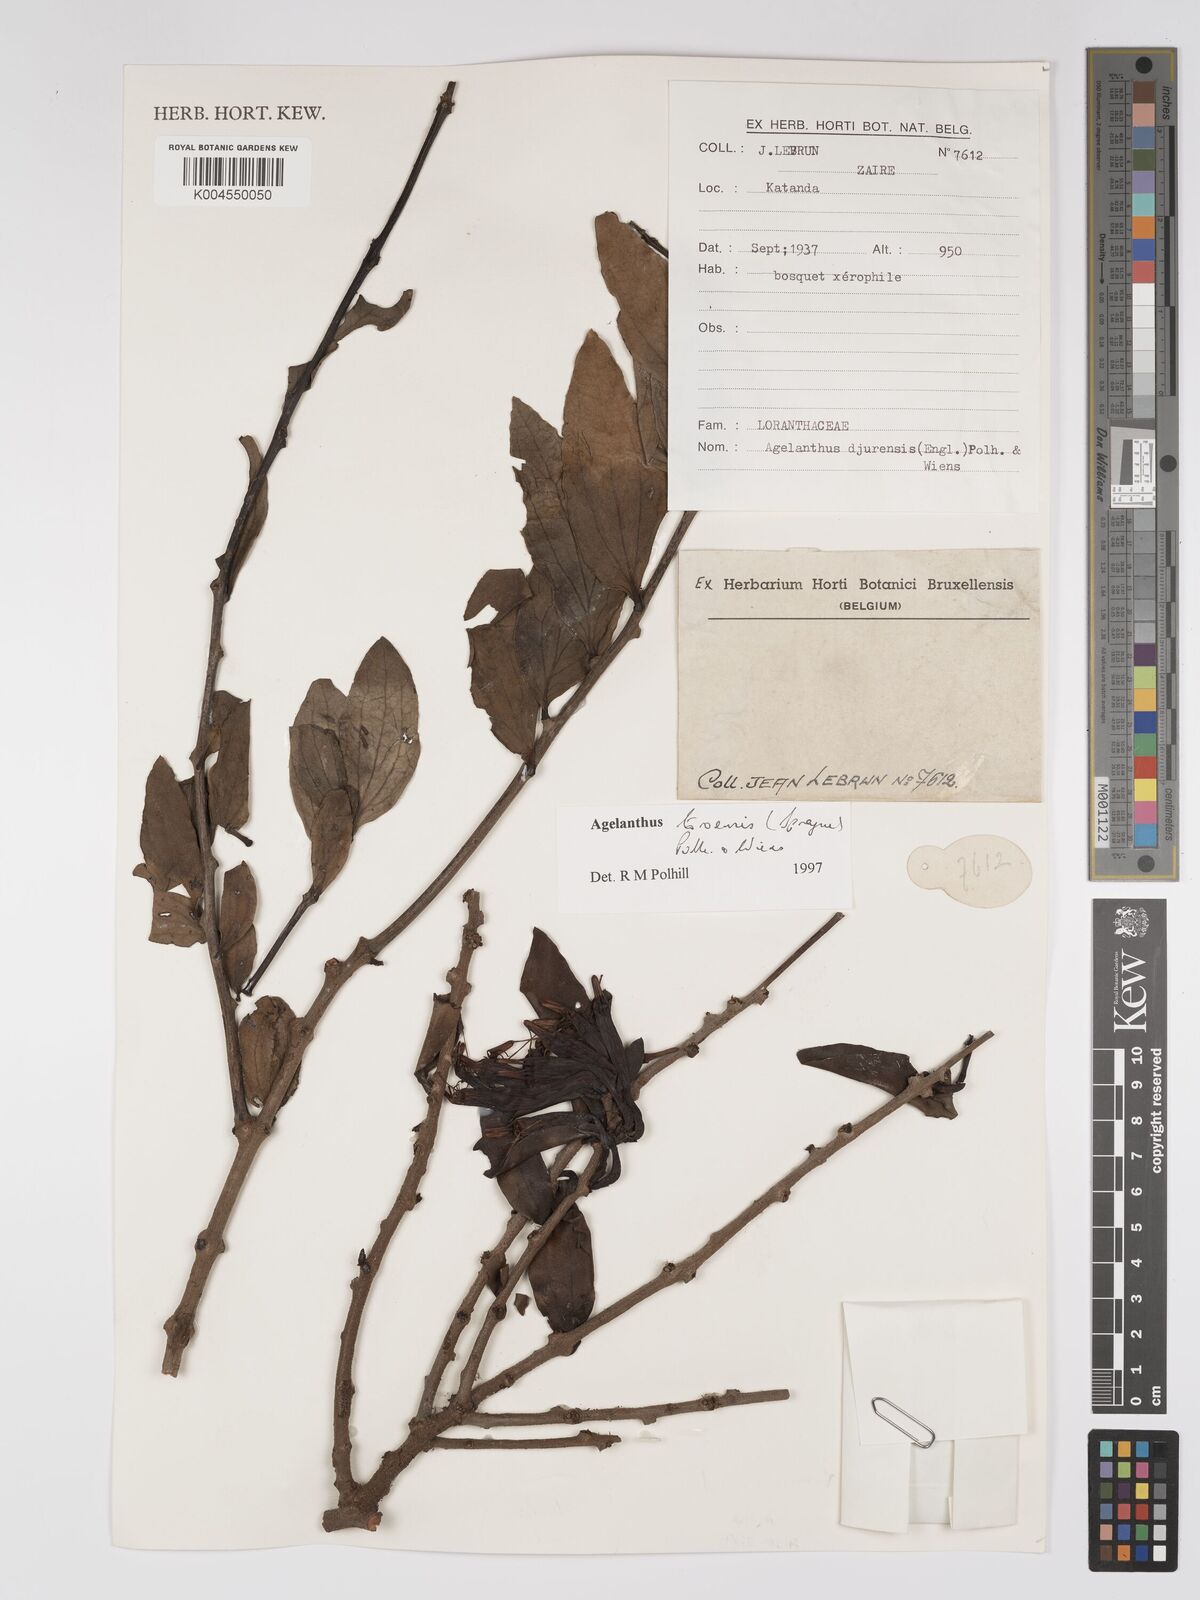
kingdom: Plantae
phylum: Tracheophyta
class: Magnoliopsida
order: Santalales
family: Loranthaceae
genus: Agelanthus
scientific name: Agelanthus toroensis
